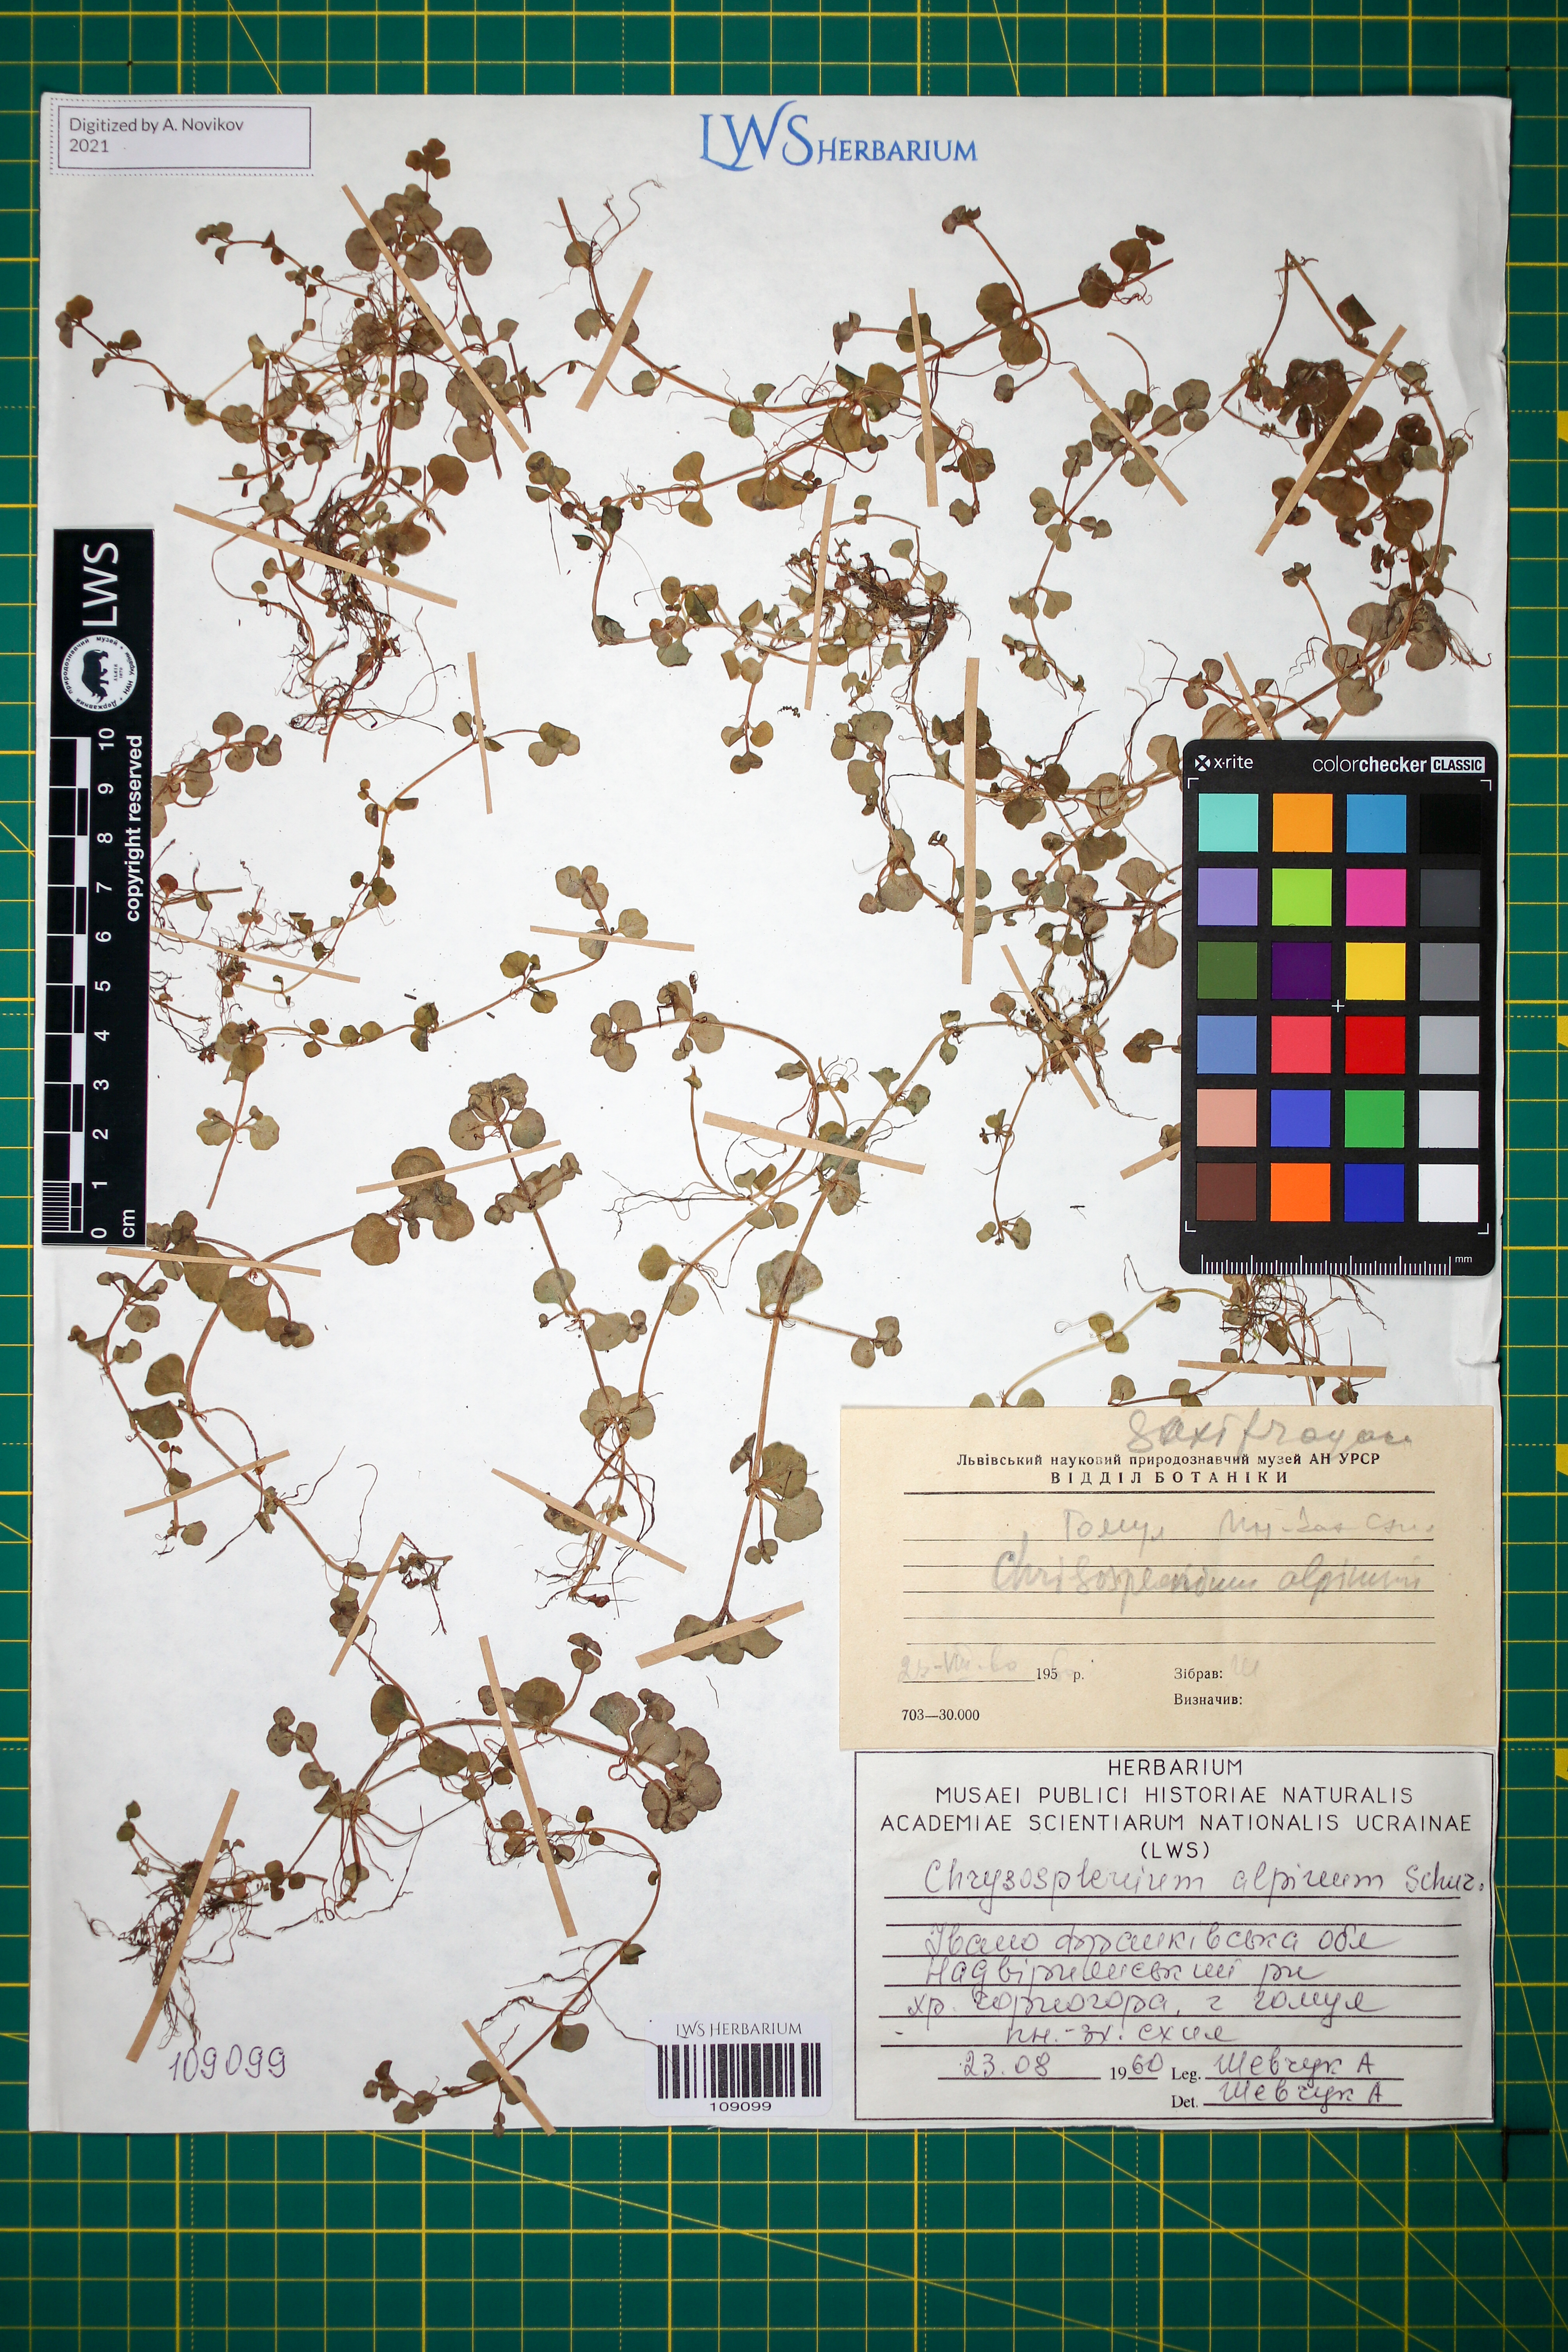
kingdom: Plantae
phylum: Tracheophyta
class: Magnoliopsida
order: Saxifragales
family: Saxifragaceae
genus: Chrysosplenium
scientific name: Chrysosplenium alpinum
